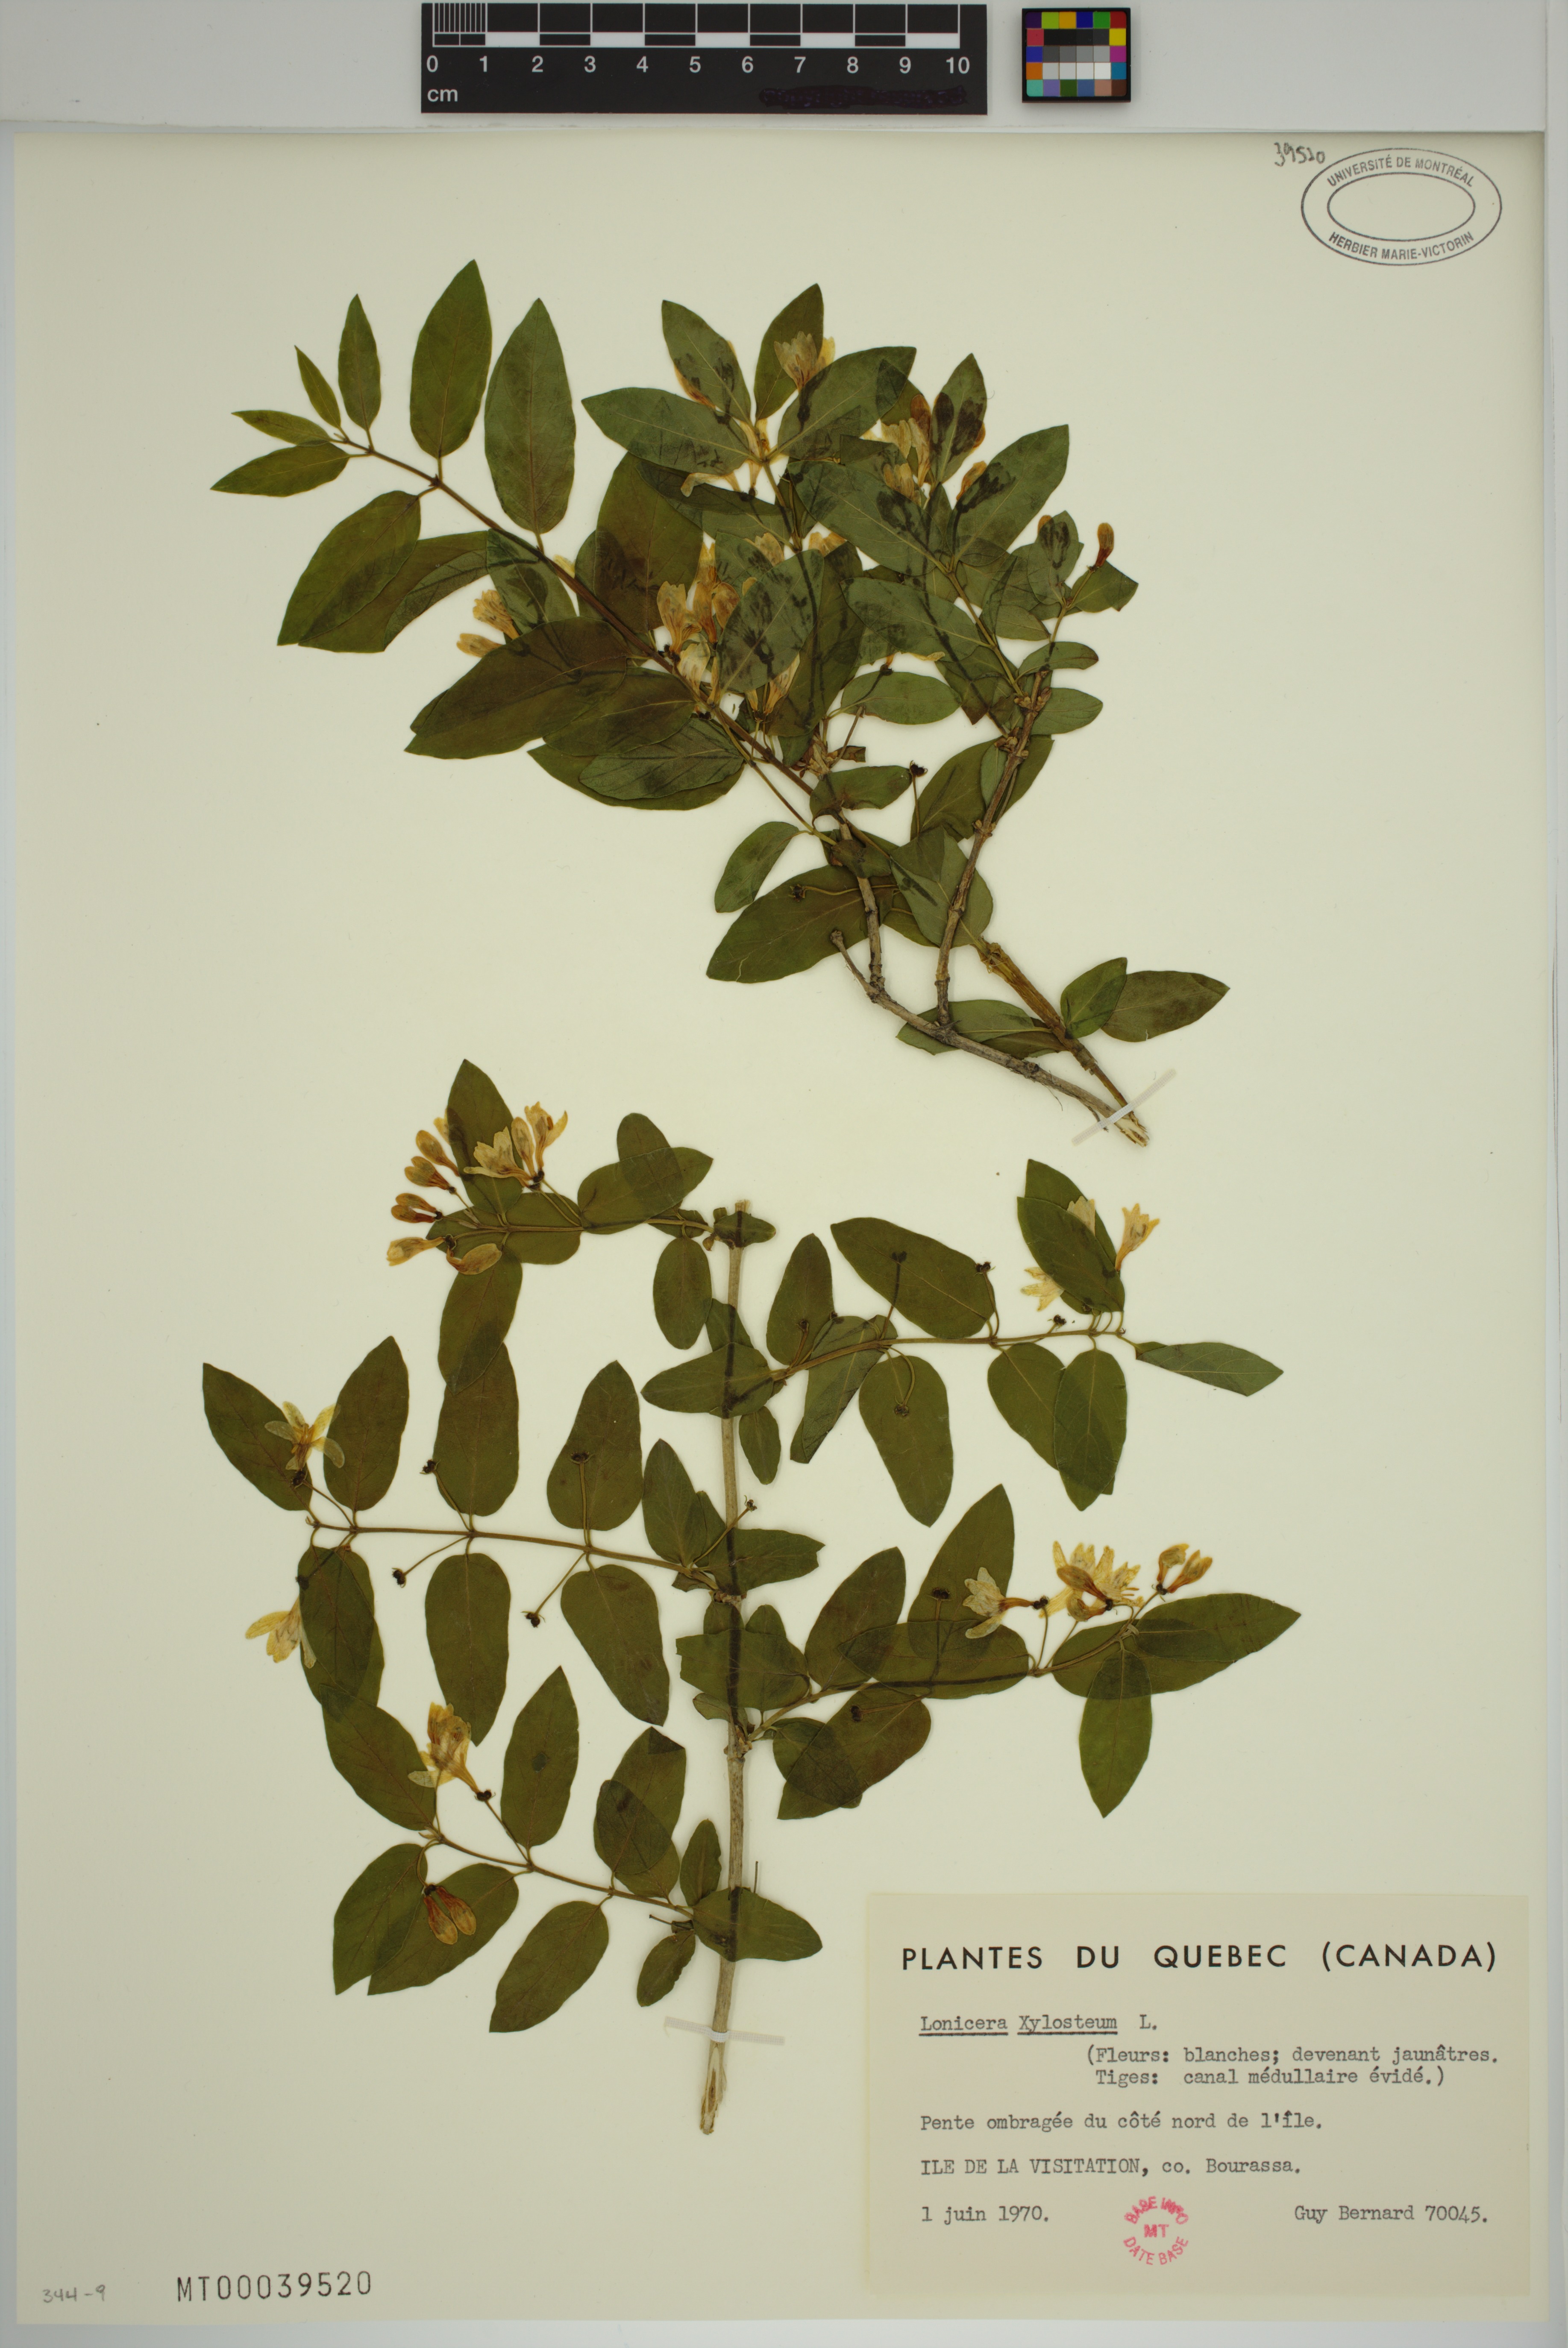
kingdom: Plantae
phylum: Tracheophyta
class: Magnoliopsida
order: Dipsacales
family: Caprifoliaceae
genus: Lonicera
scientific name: Lonicera xylosteum
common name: Fly honeysuckle
